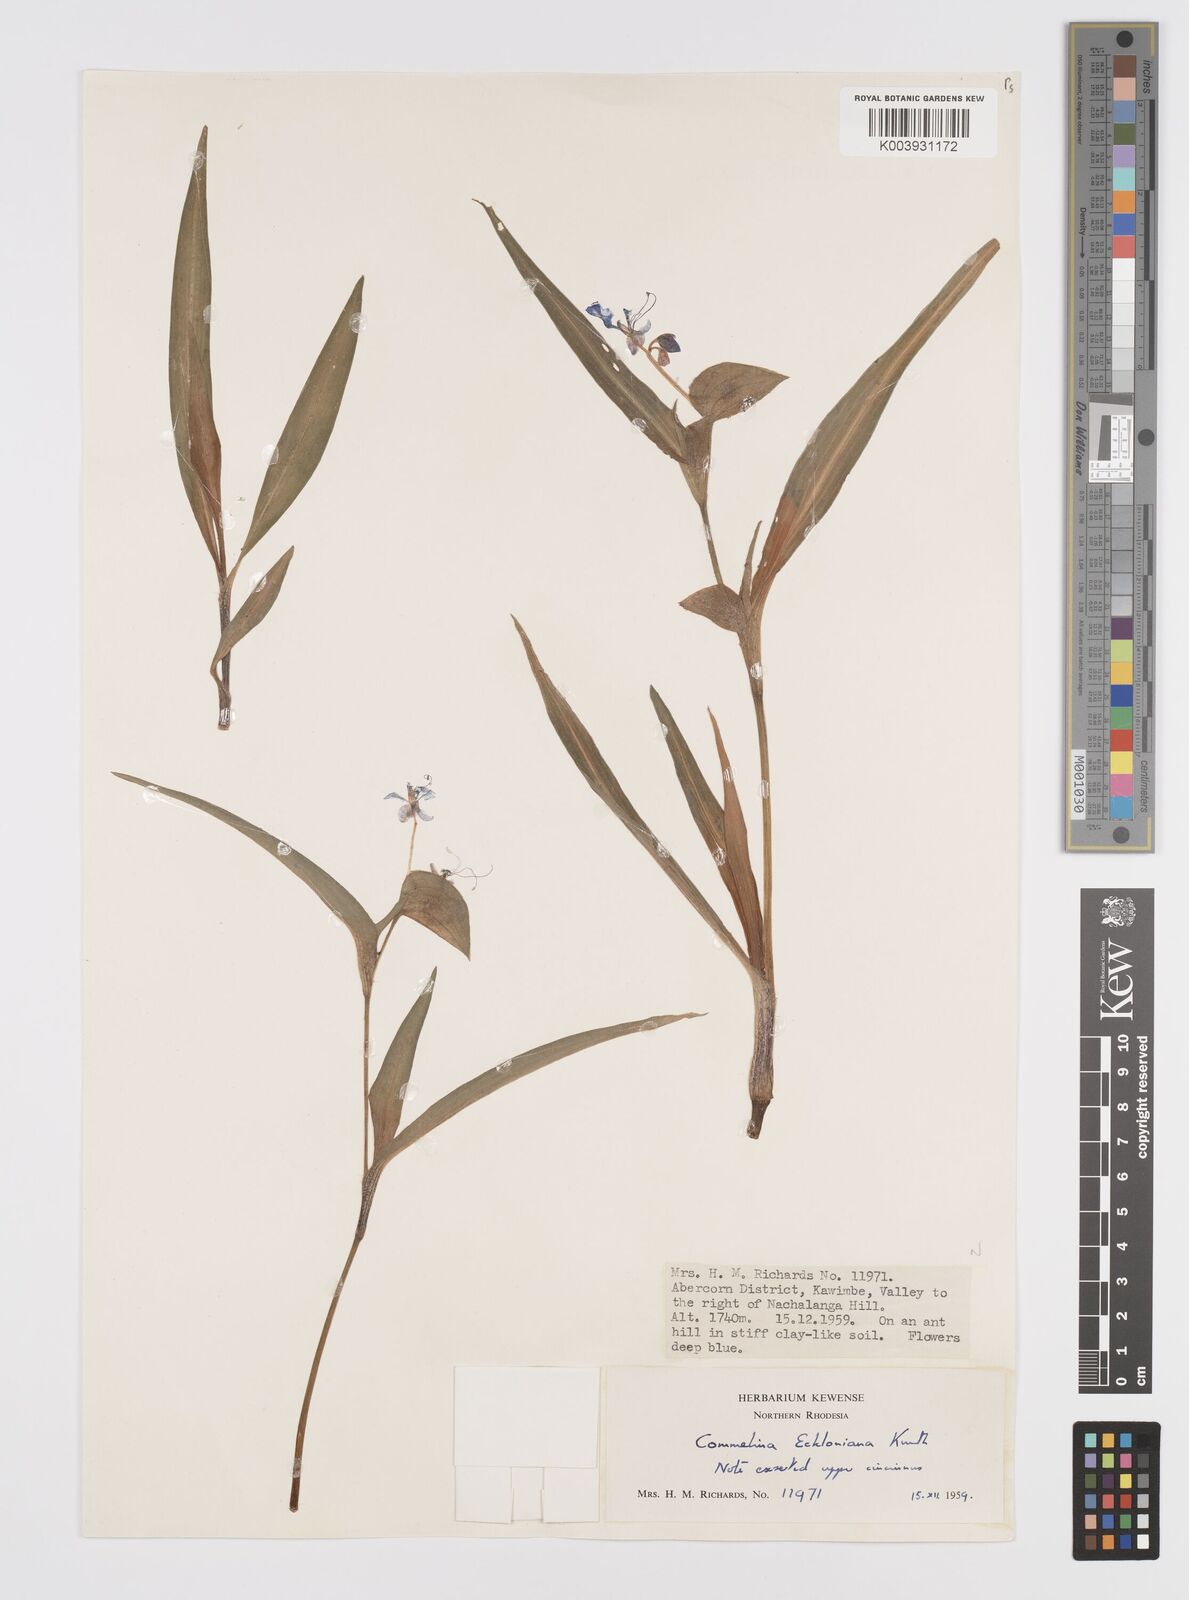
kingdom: Plantae
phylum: Tracheophyta
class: Liliopsida
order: Commelinales
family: Commelinaceae
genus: Commelina
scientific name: Commelina eckloniana
